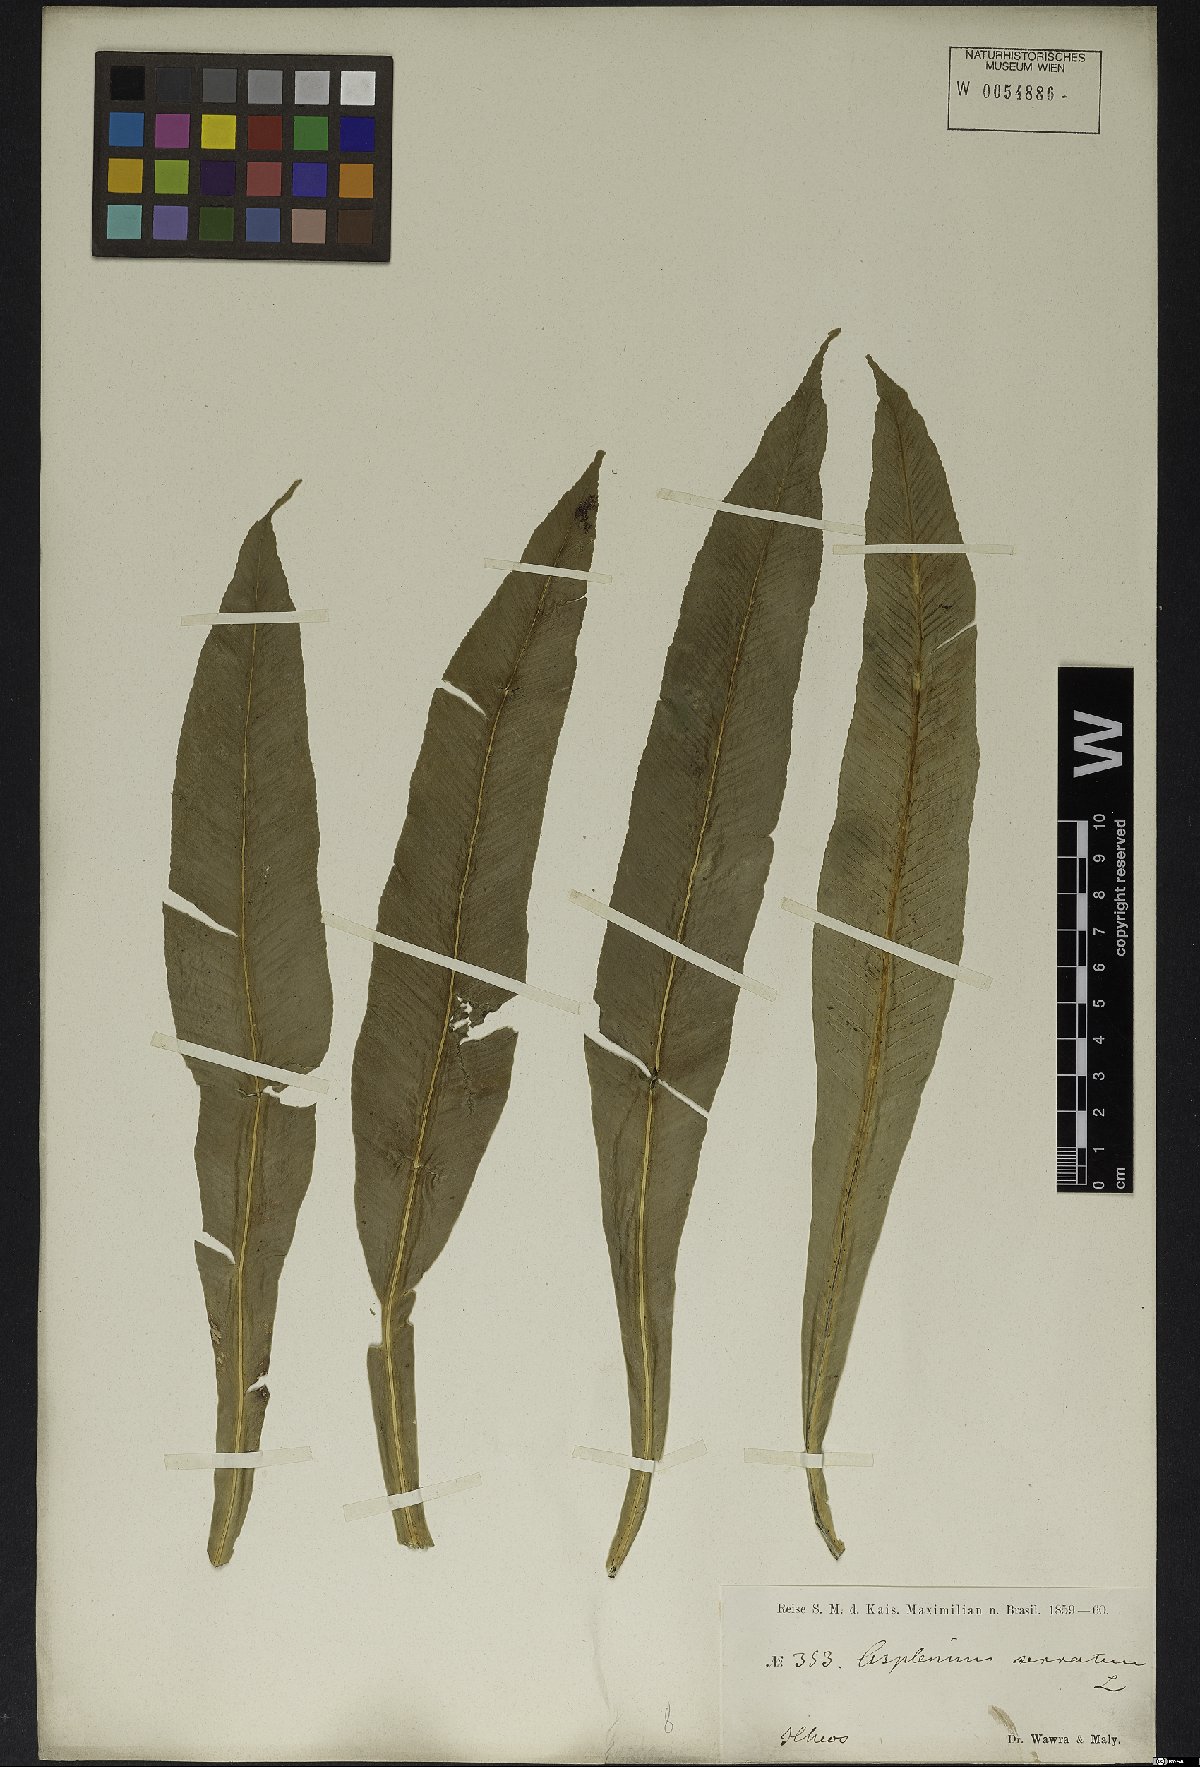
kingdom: Plantae
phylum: Tracheophyta
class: Polypodiopsida
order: Polypodiales
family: Aspleniaceae
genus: Asplenium
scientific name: Asplenium serratum
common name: Wild birdnest fern
